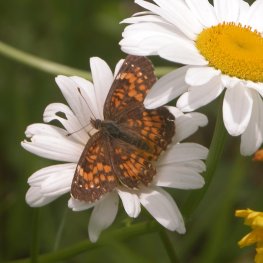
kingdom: Animalia
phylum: Arthropoda
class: Insecta
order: Lepidoptera
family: Nymphalidae
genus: Chlosyne
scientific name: Chlosyne harrisii
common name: Harris's Checkerspot
